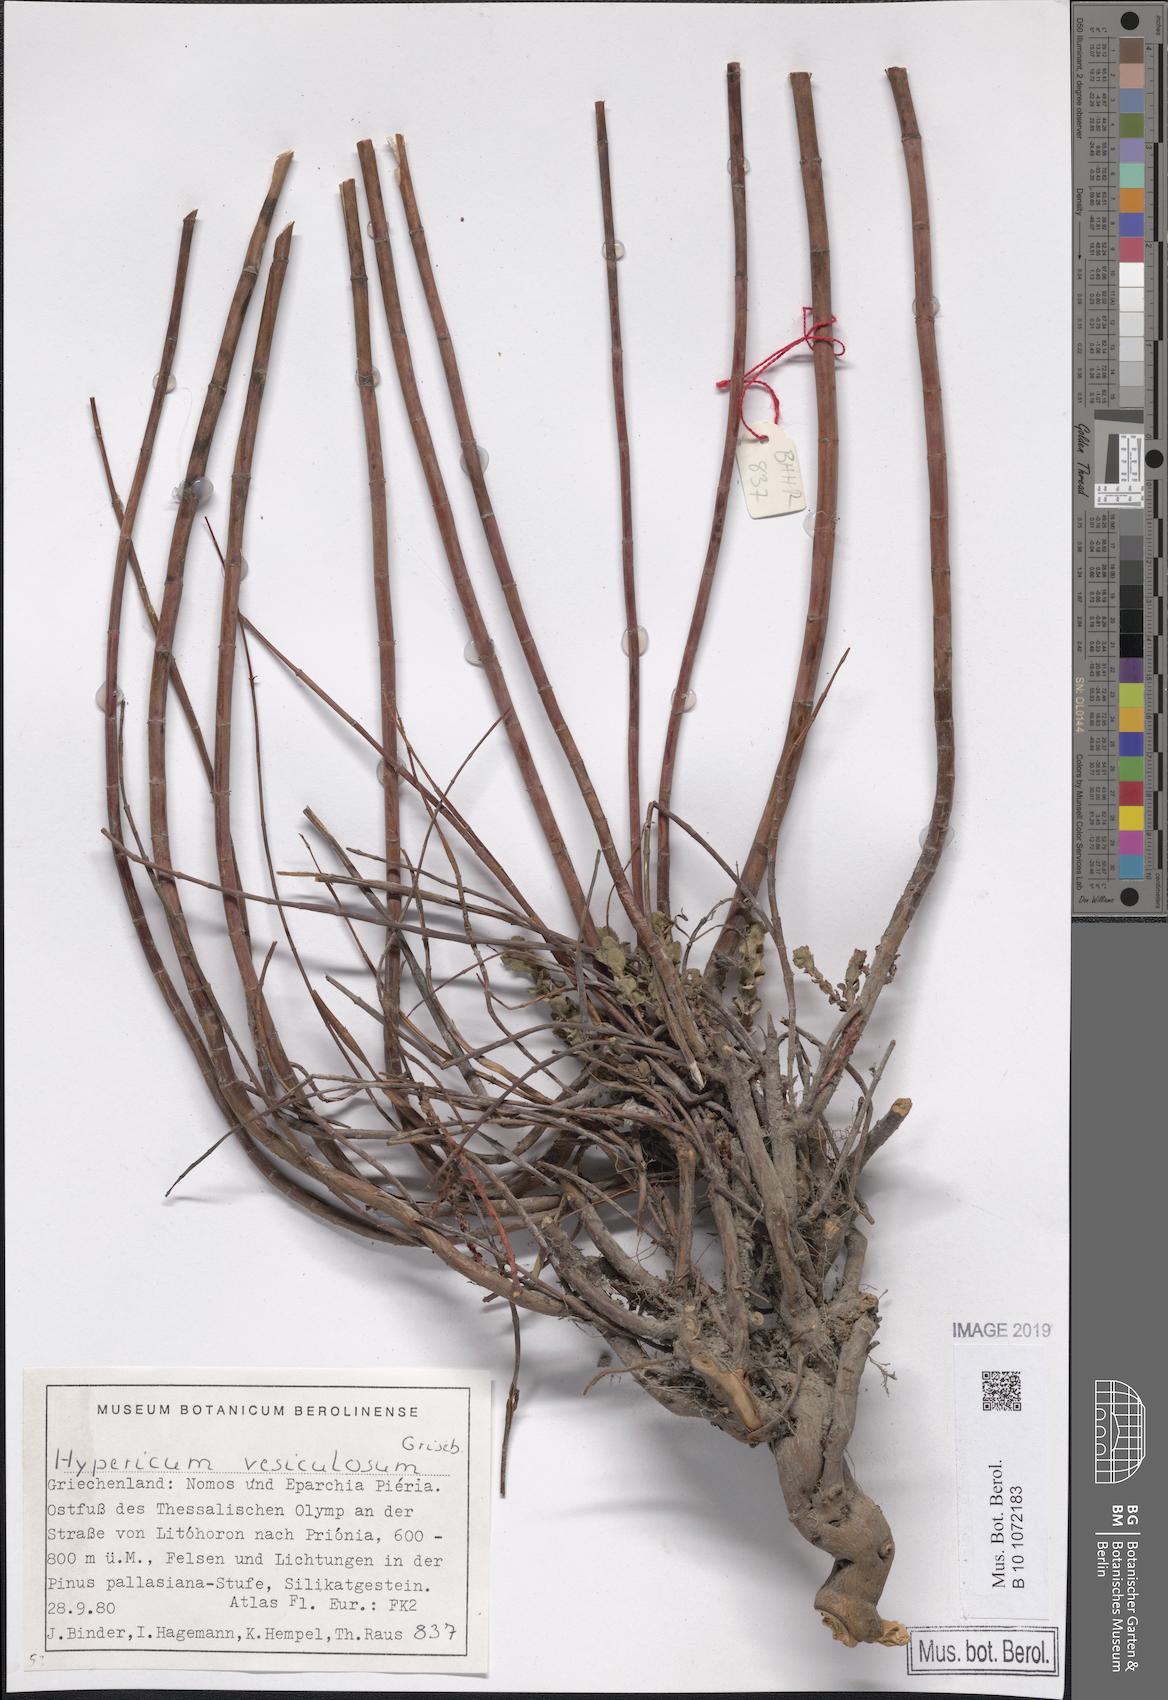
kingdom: Plantae
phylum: Tracheophyta
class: Magnoliopsida
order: Malpighiales
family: Hypericaceae
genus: Hypericum
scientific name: Hypericum vesiculosum
